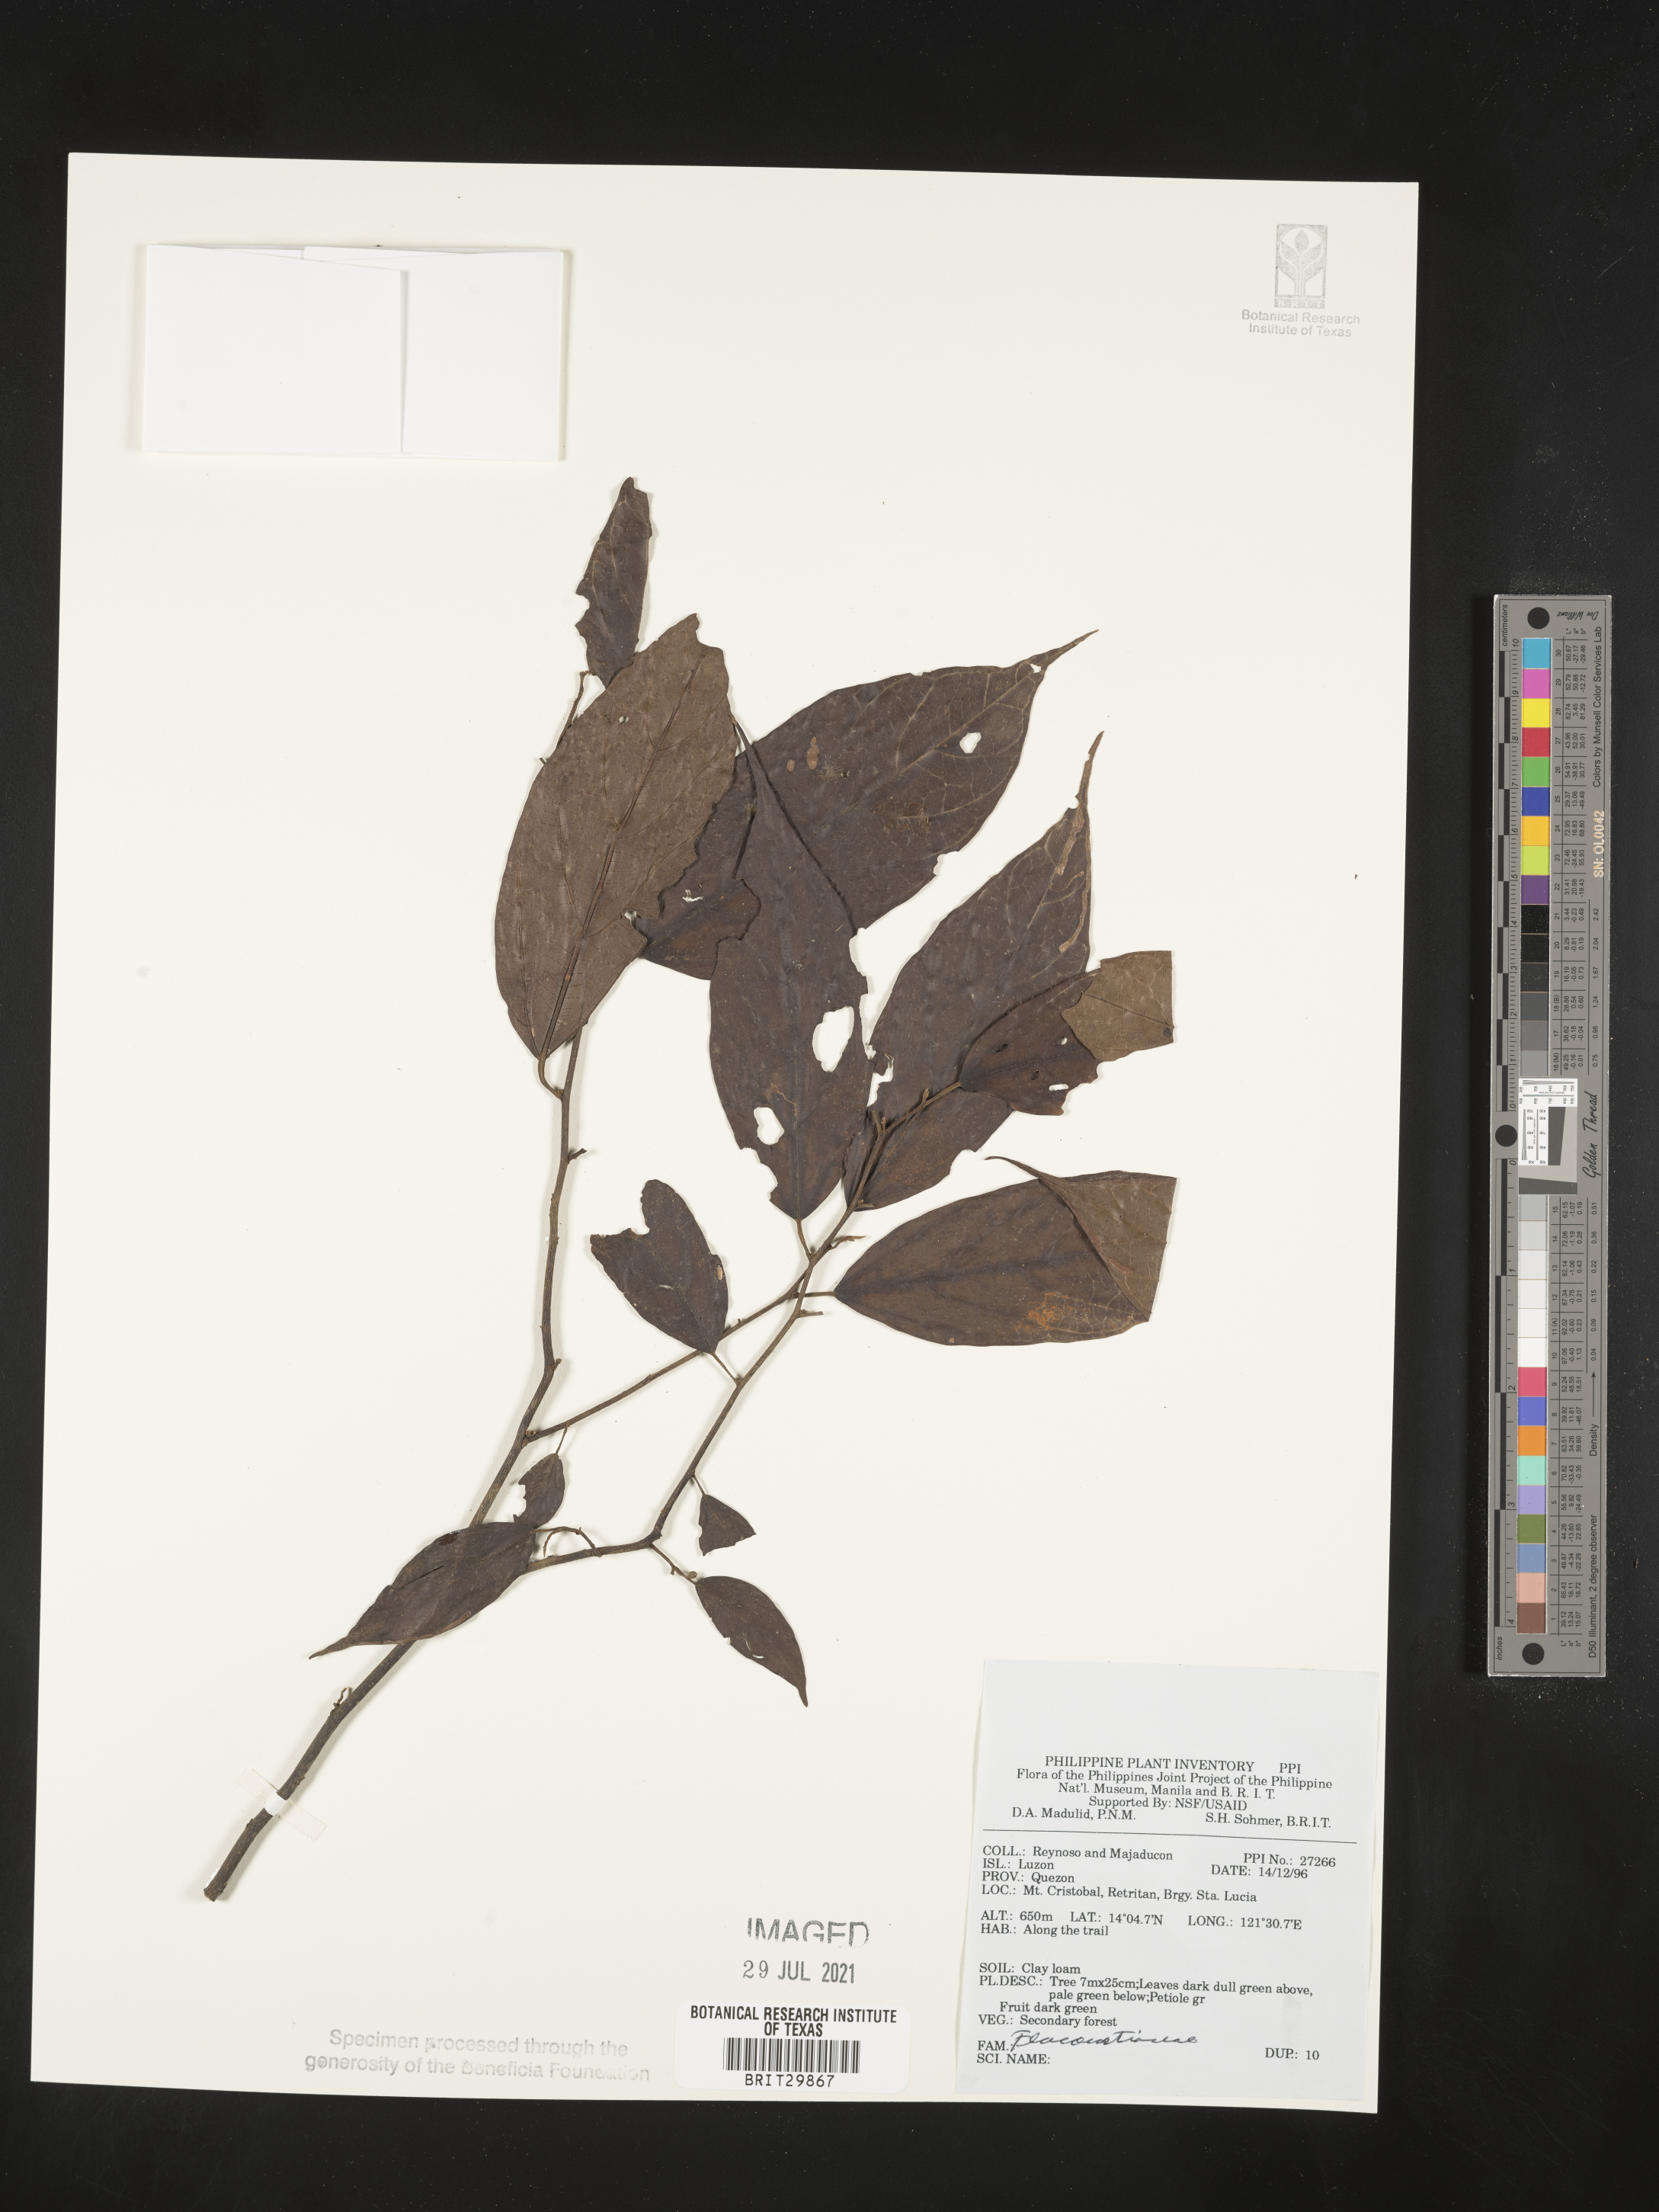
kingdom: Plantae
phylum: Tracheophyta
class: Magnoliopsida
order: Malpighiales
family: Flacourtiaceae
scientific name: Flacourtiaceae
